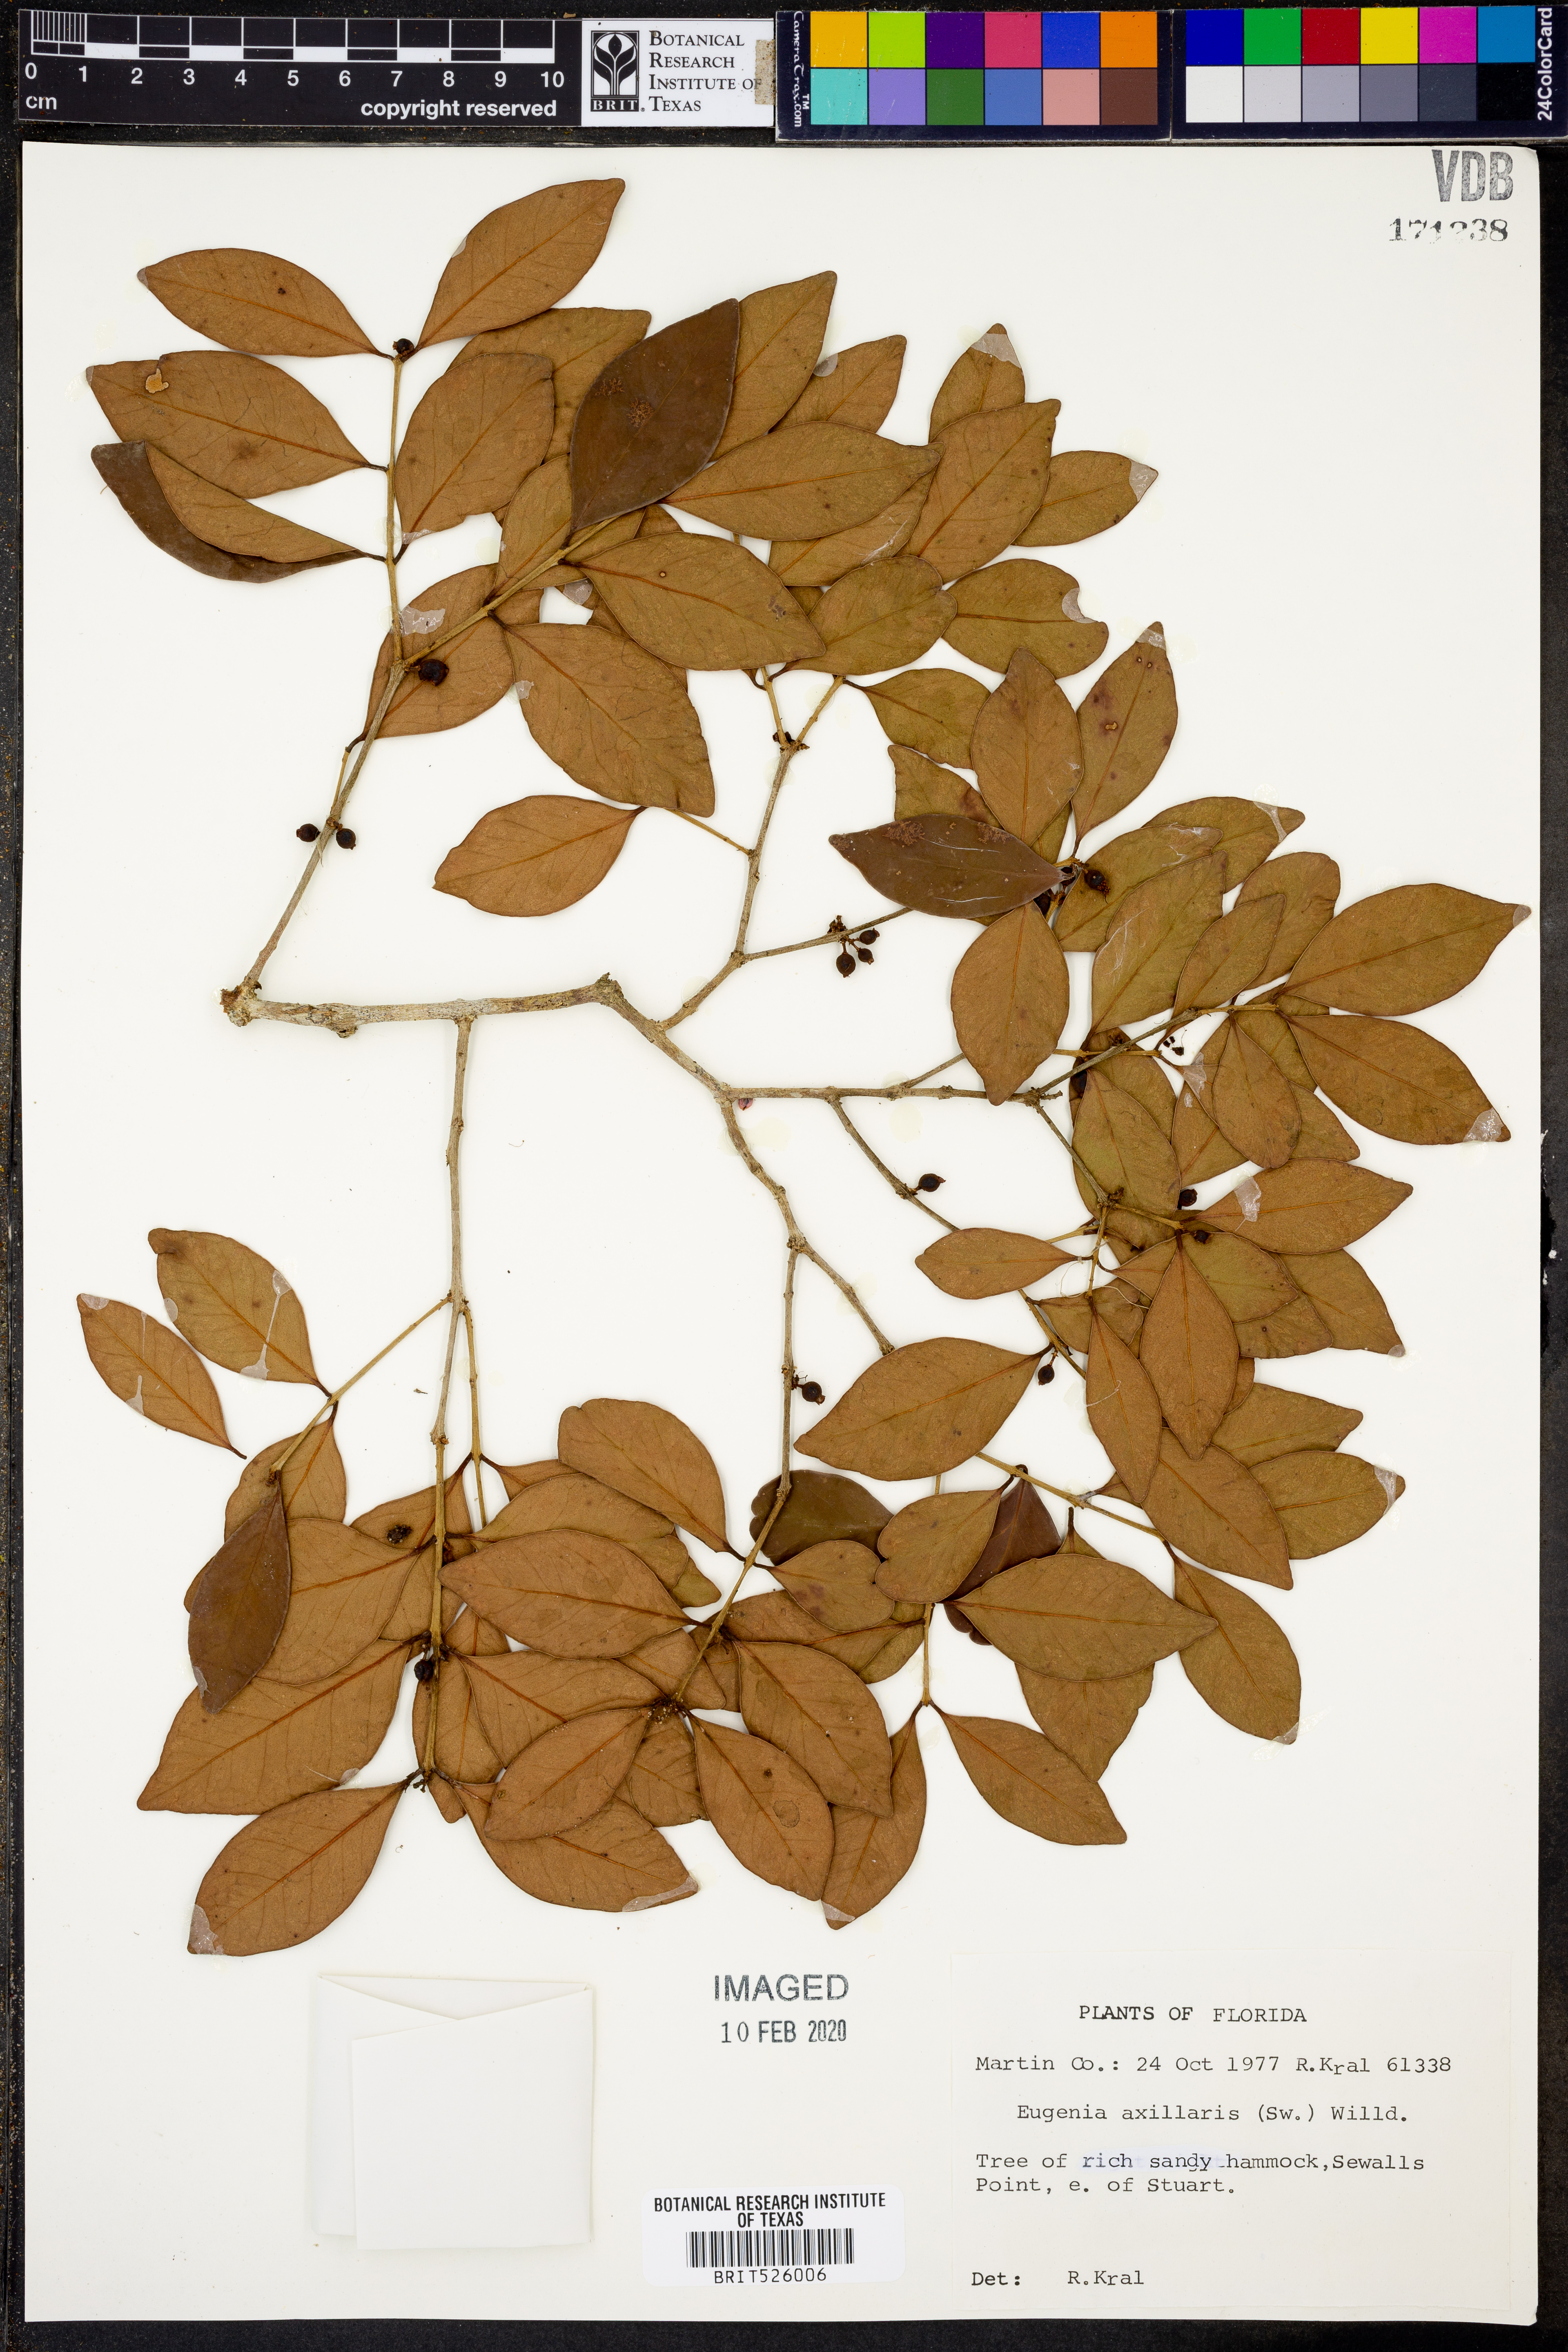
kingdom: Plantae
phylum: Tracheophyta
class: Magnoliopsida
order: Myrtales
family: Myrtaceae
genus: Eugenia
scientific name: Eugenia axillaris
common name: Choaky berry
